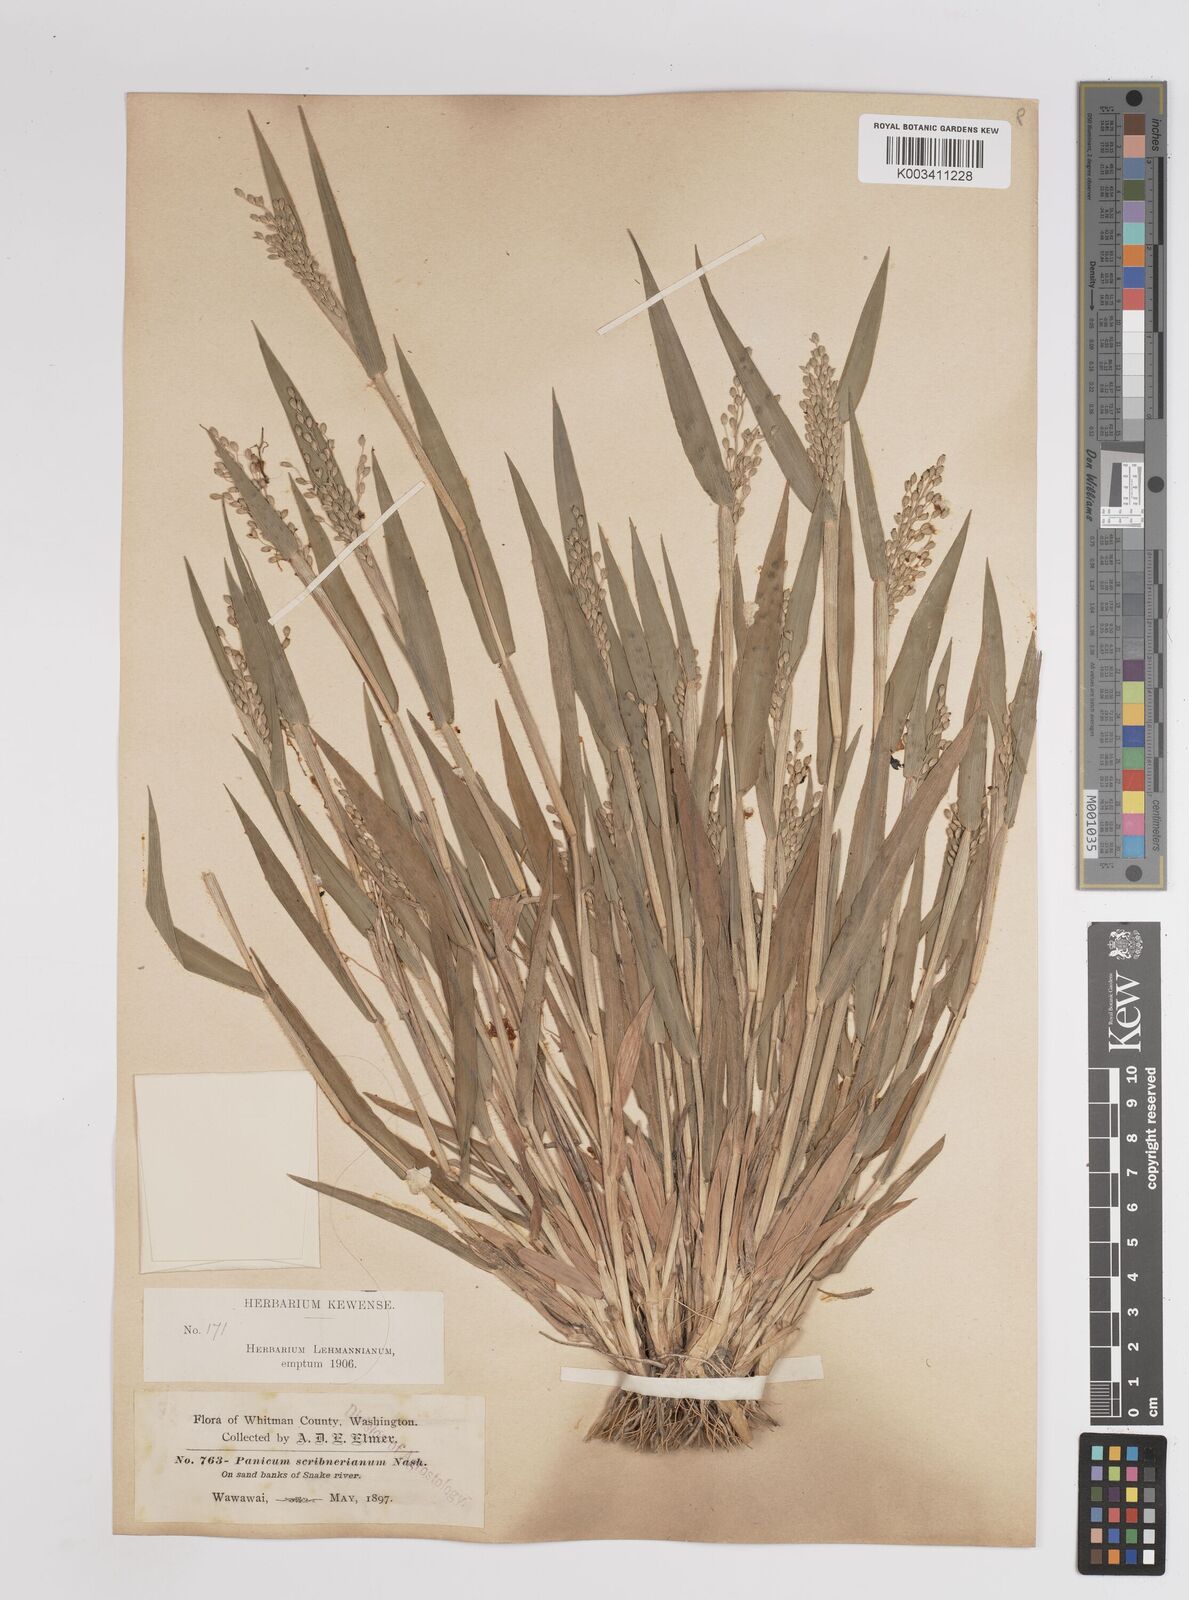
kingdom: Plantae
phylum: Tracheophyta
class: Liliopsida
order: Poales
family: Poaceae
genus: Dichanthelium
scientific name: Dichanthelium scribnerianum
